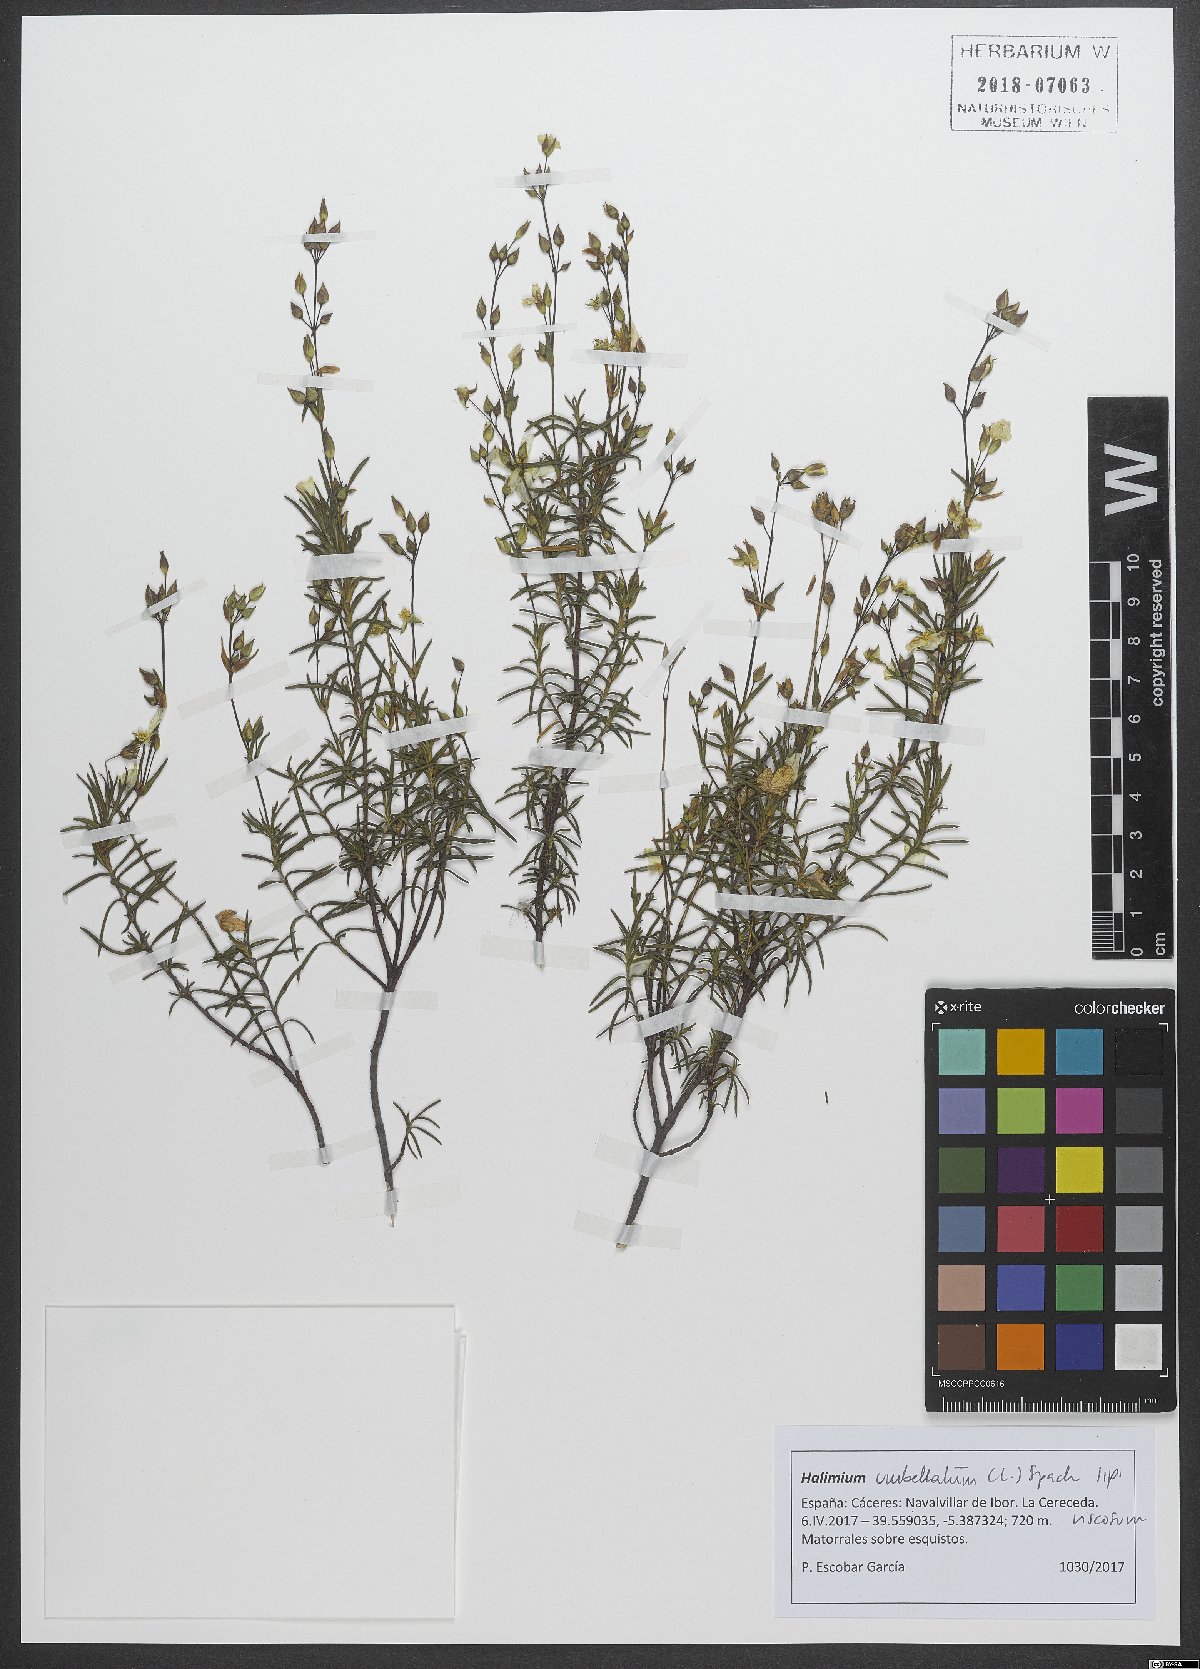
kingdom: Plantae
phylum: Tracheophyta
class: Magnoliopsida
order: Malvales
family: Cistaceae
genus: Halimium
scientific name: Halimium umbellatum
